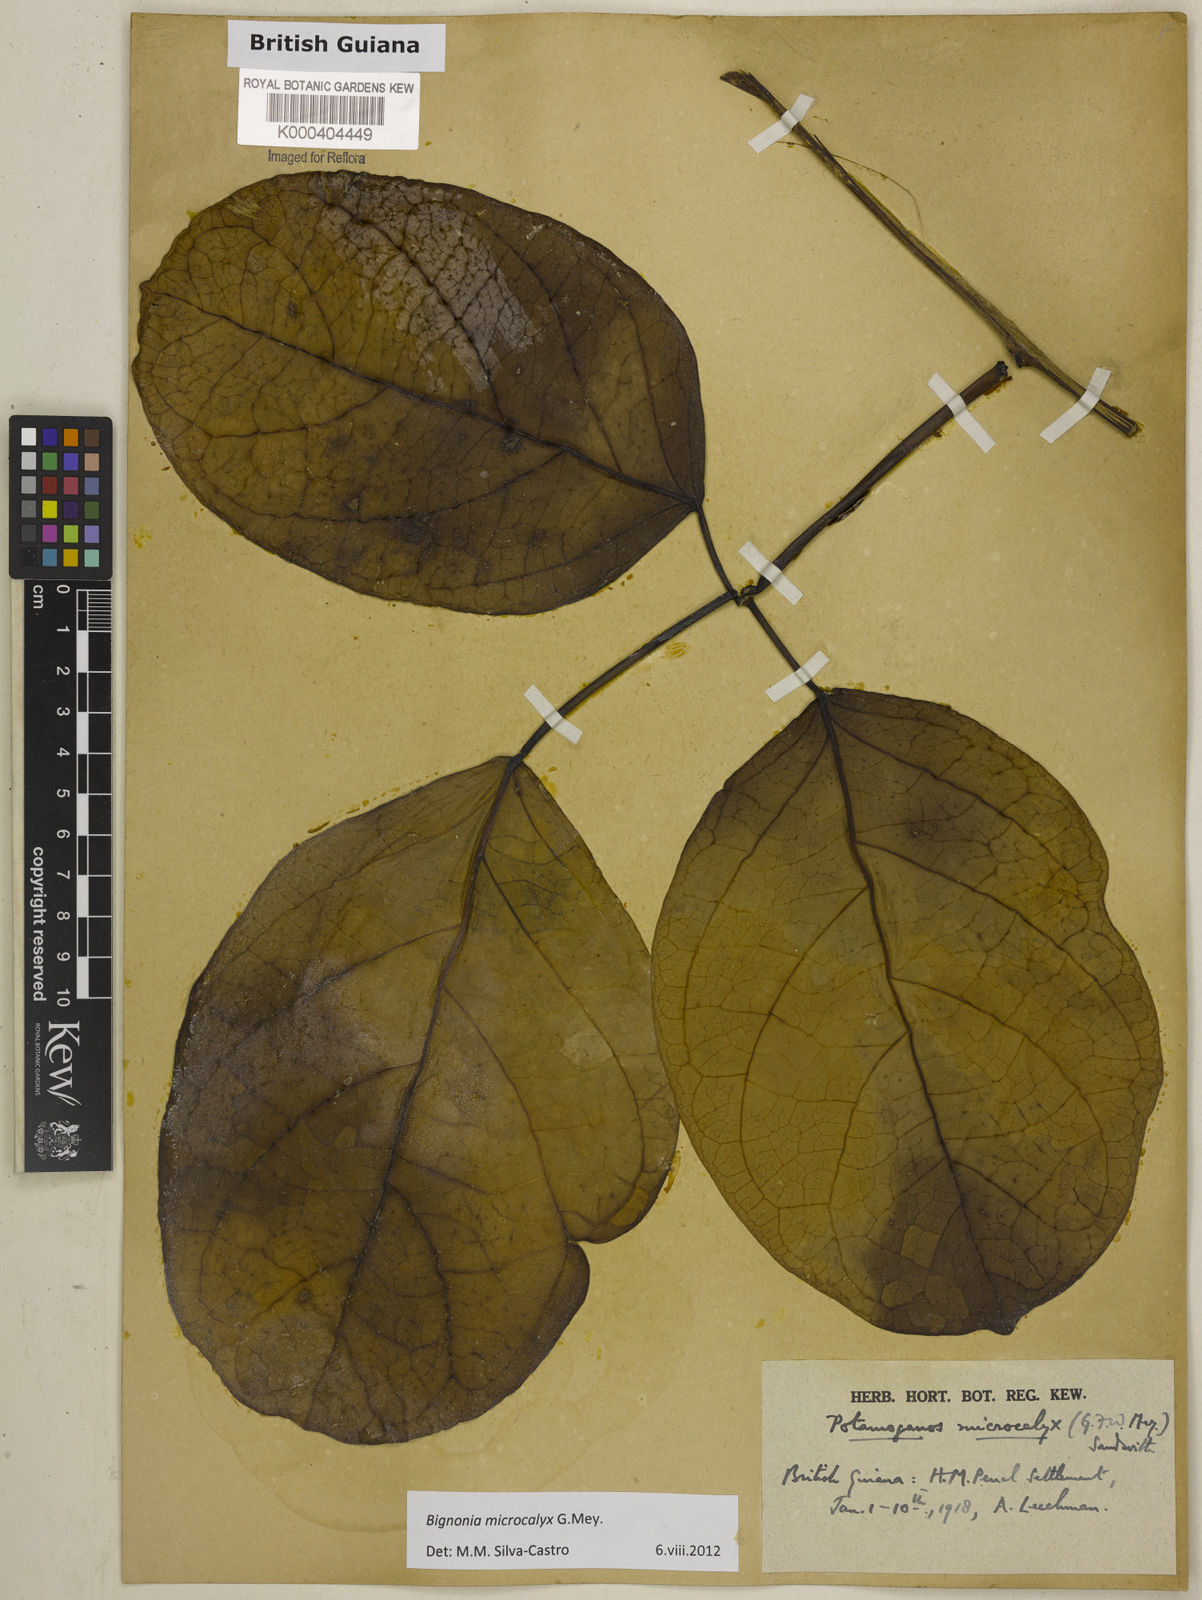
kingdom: Plantae
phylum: Tracheophyta
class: Magnoliopsida
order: Lamiales
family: Bignoniaceae
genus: Bignonia
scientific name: Bignonia microcalyx
